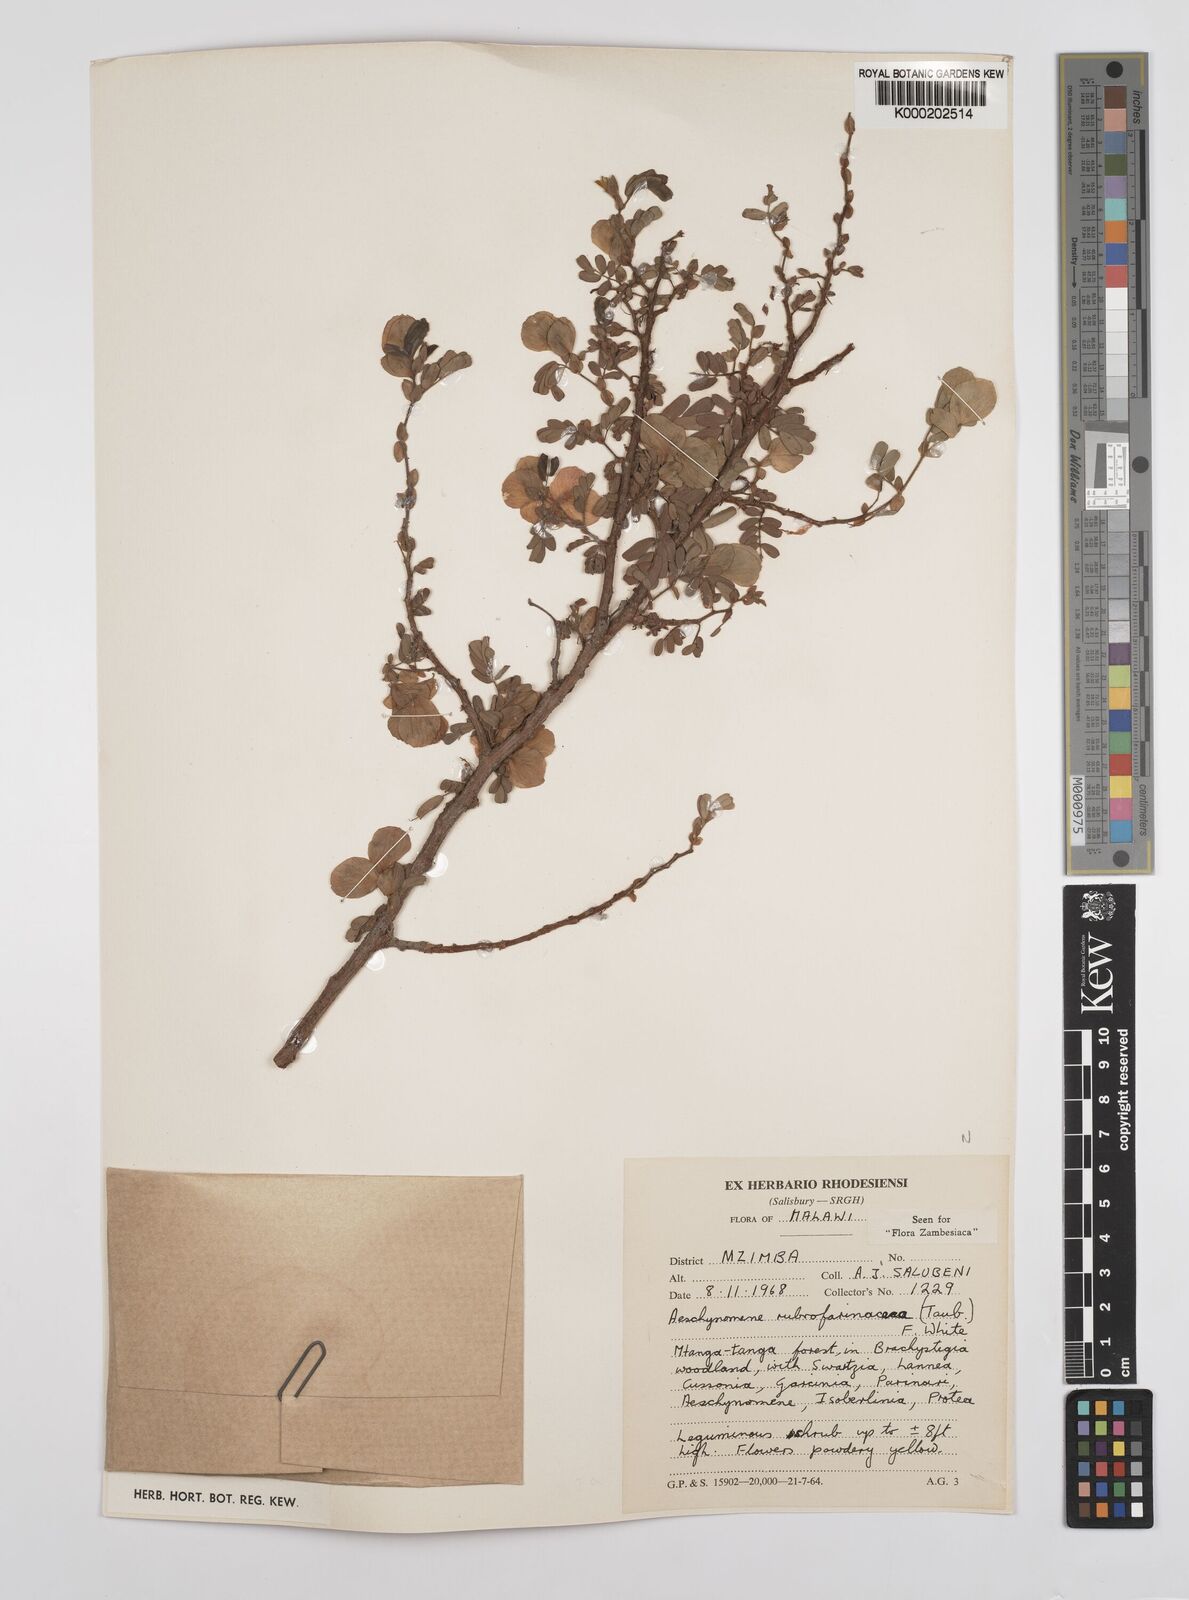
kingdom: Plantae
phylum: Tracheophyta
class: Magnoliopsida
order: Fabales
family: Fabaceae
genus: Aeschynomene
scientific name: Aeschynomene rubrofarinacea
